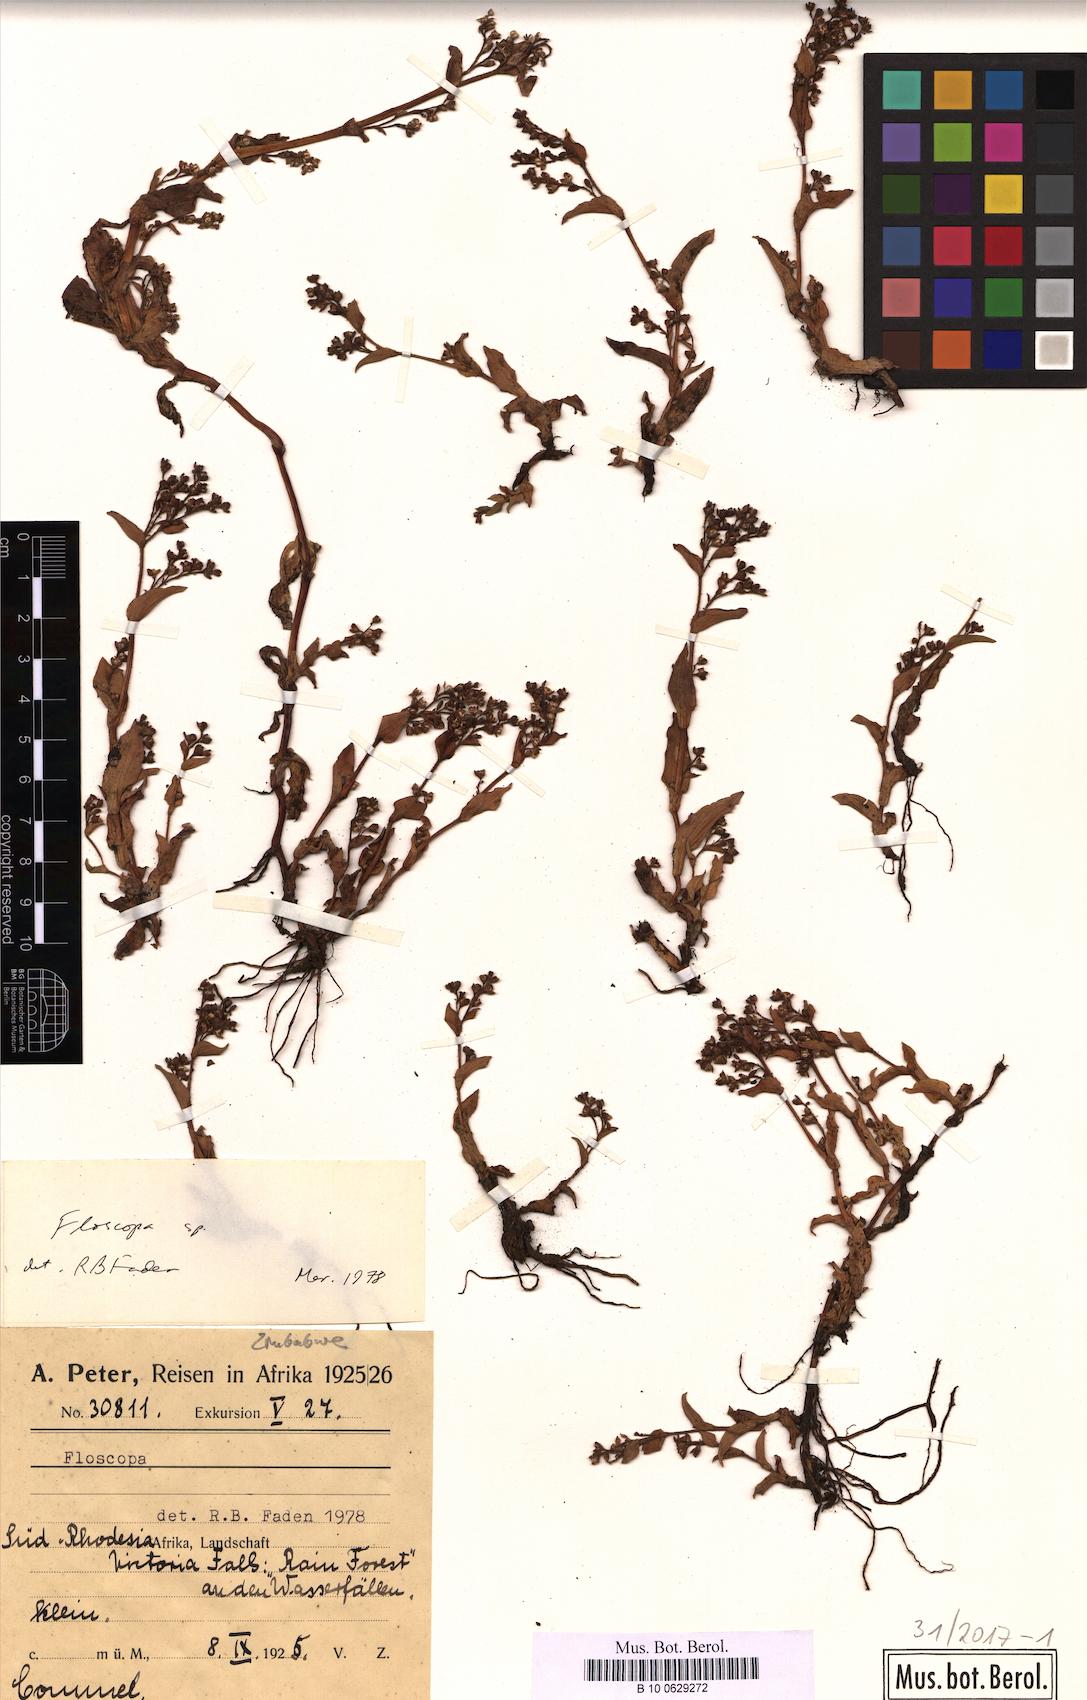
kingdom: Plantae
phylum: Tracheophyta
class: Liliopsida
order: Commelinales
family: Commelinaceae
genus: Floscopa
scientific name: Floscopa
